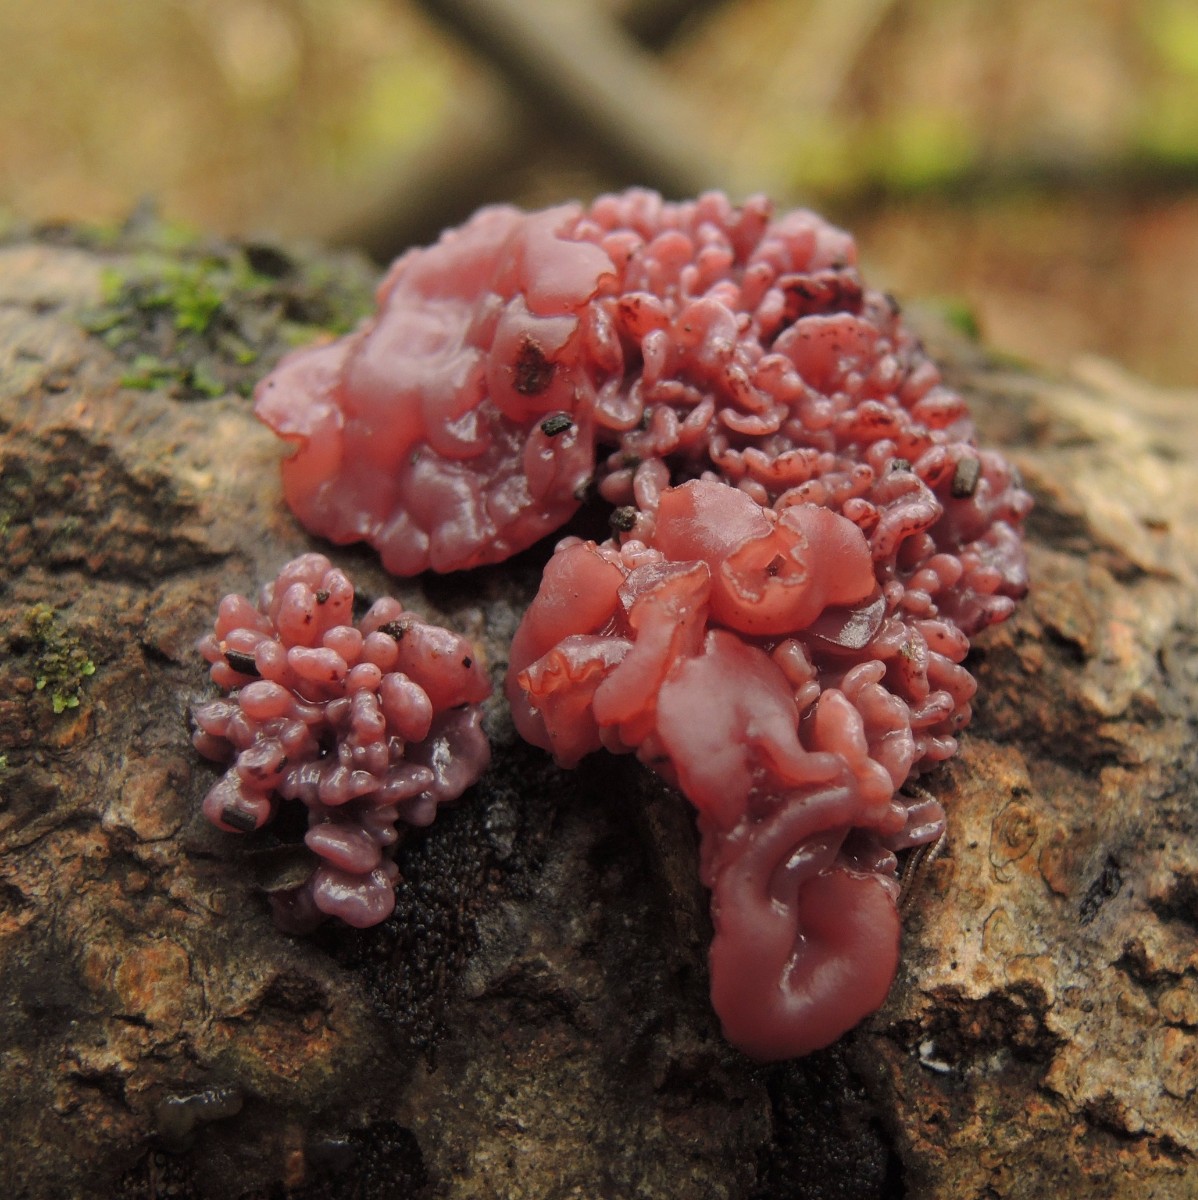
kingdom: Fungi
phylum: Ascomycota
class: Leotiomycetes
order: Helotiales
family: Gelatinodiscaceae
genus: Ascocoryne
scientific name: Ascocoryne sarcoides
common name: rødlilla sejskive
